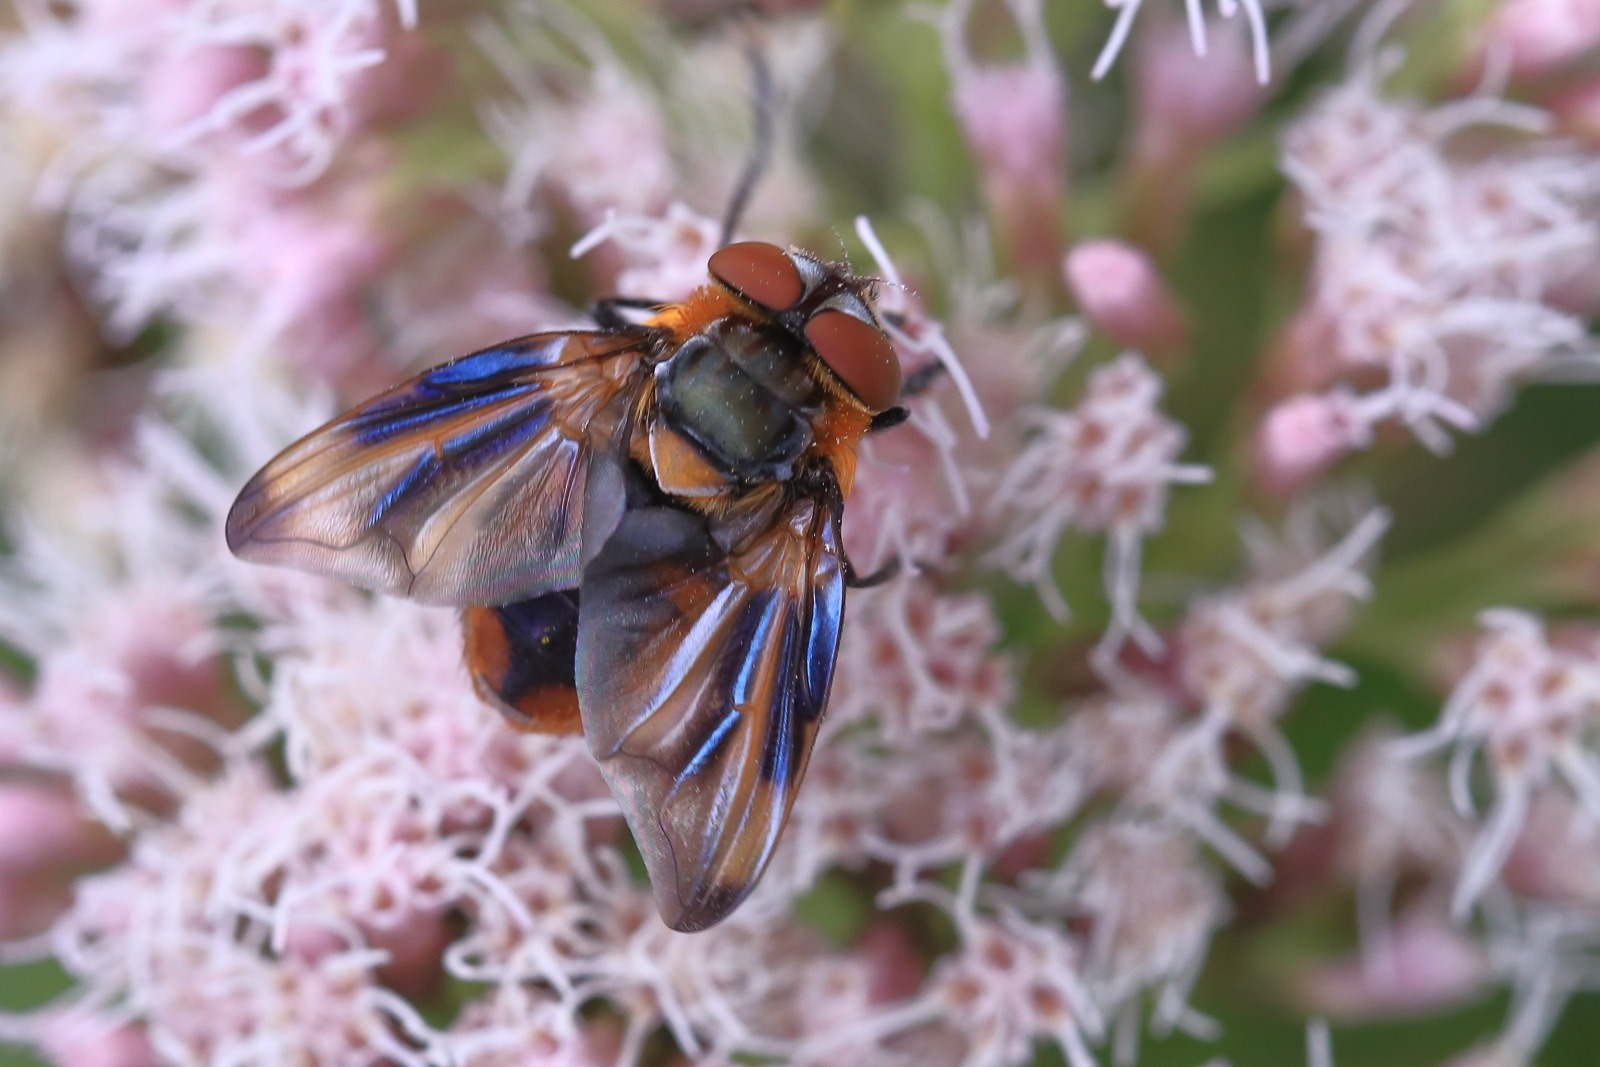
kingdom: Animalia
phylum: Arthropoda
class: Insecta
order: Diptera
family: Tachinidae
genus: Phasia
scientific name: Phasia hemiptera
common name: Blåvinget pragtsnylteflue
